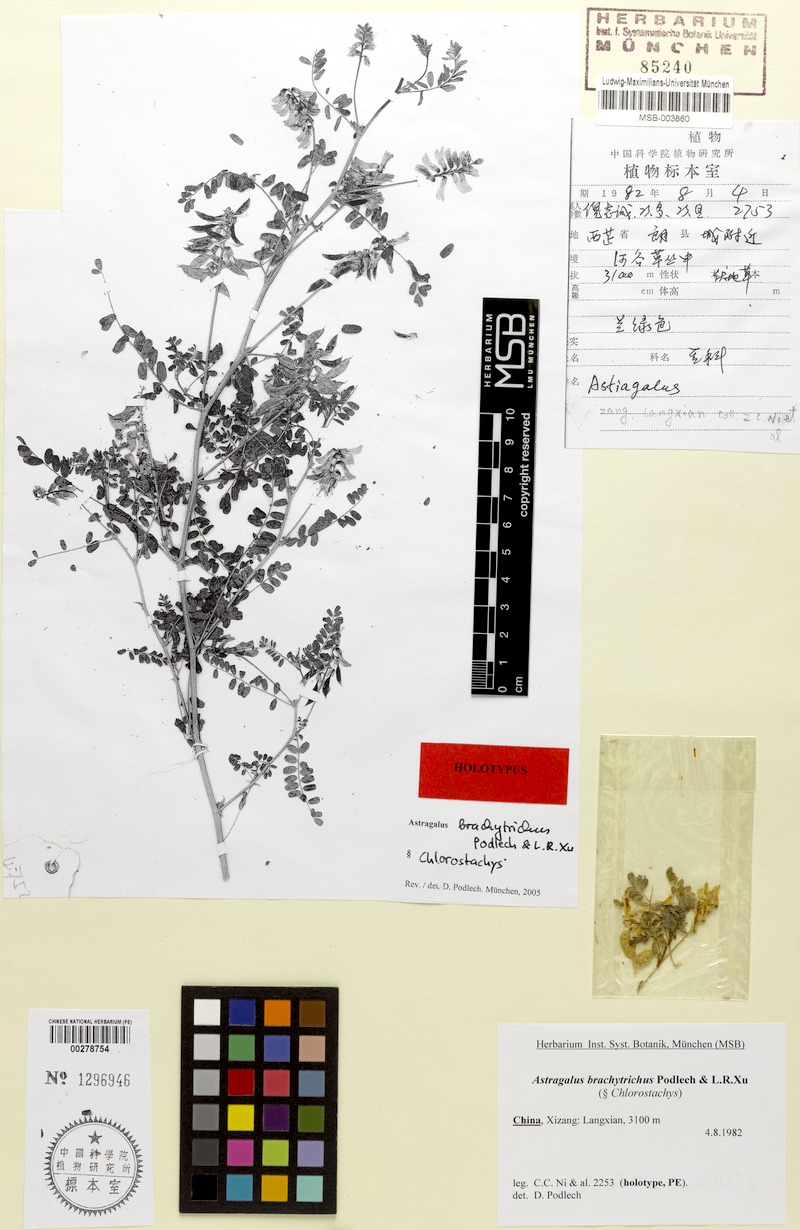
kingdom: Plantae
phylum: Tracheophyta
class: Magnoliopsida
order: Fabales
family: Fabaceae
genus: Astragalus
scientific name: Astragalus brachytrichus
